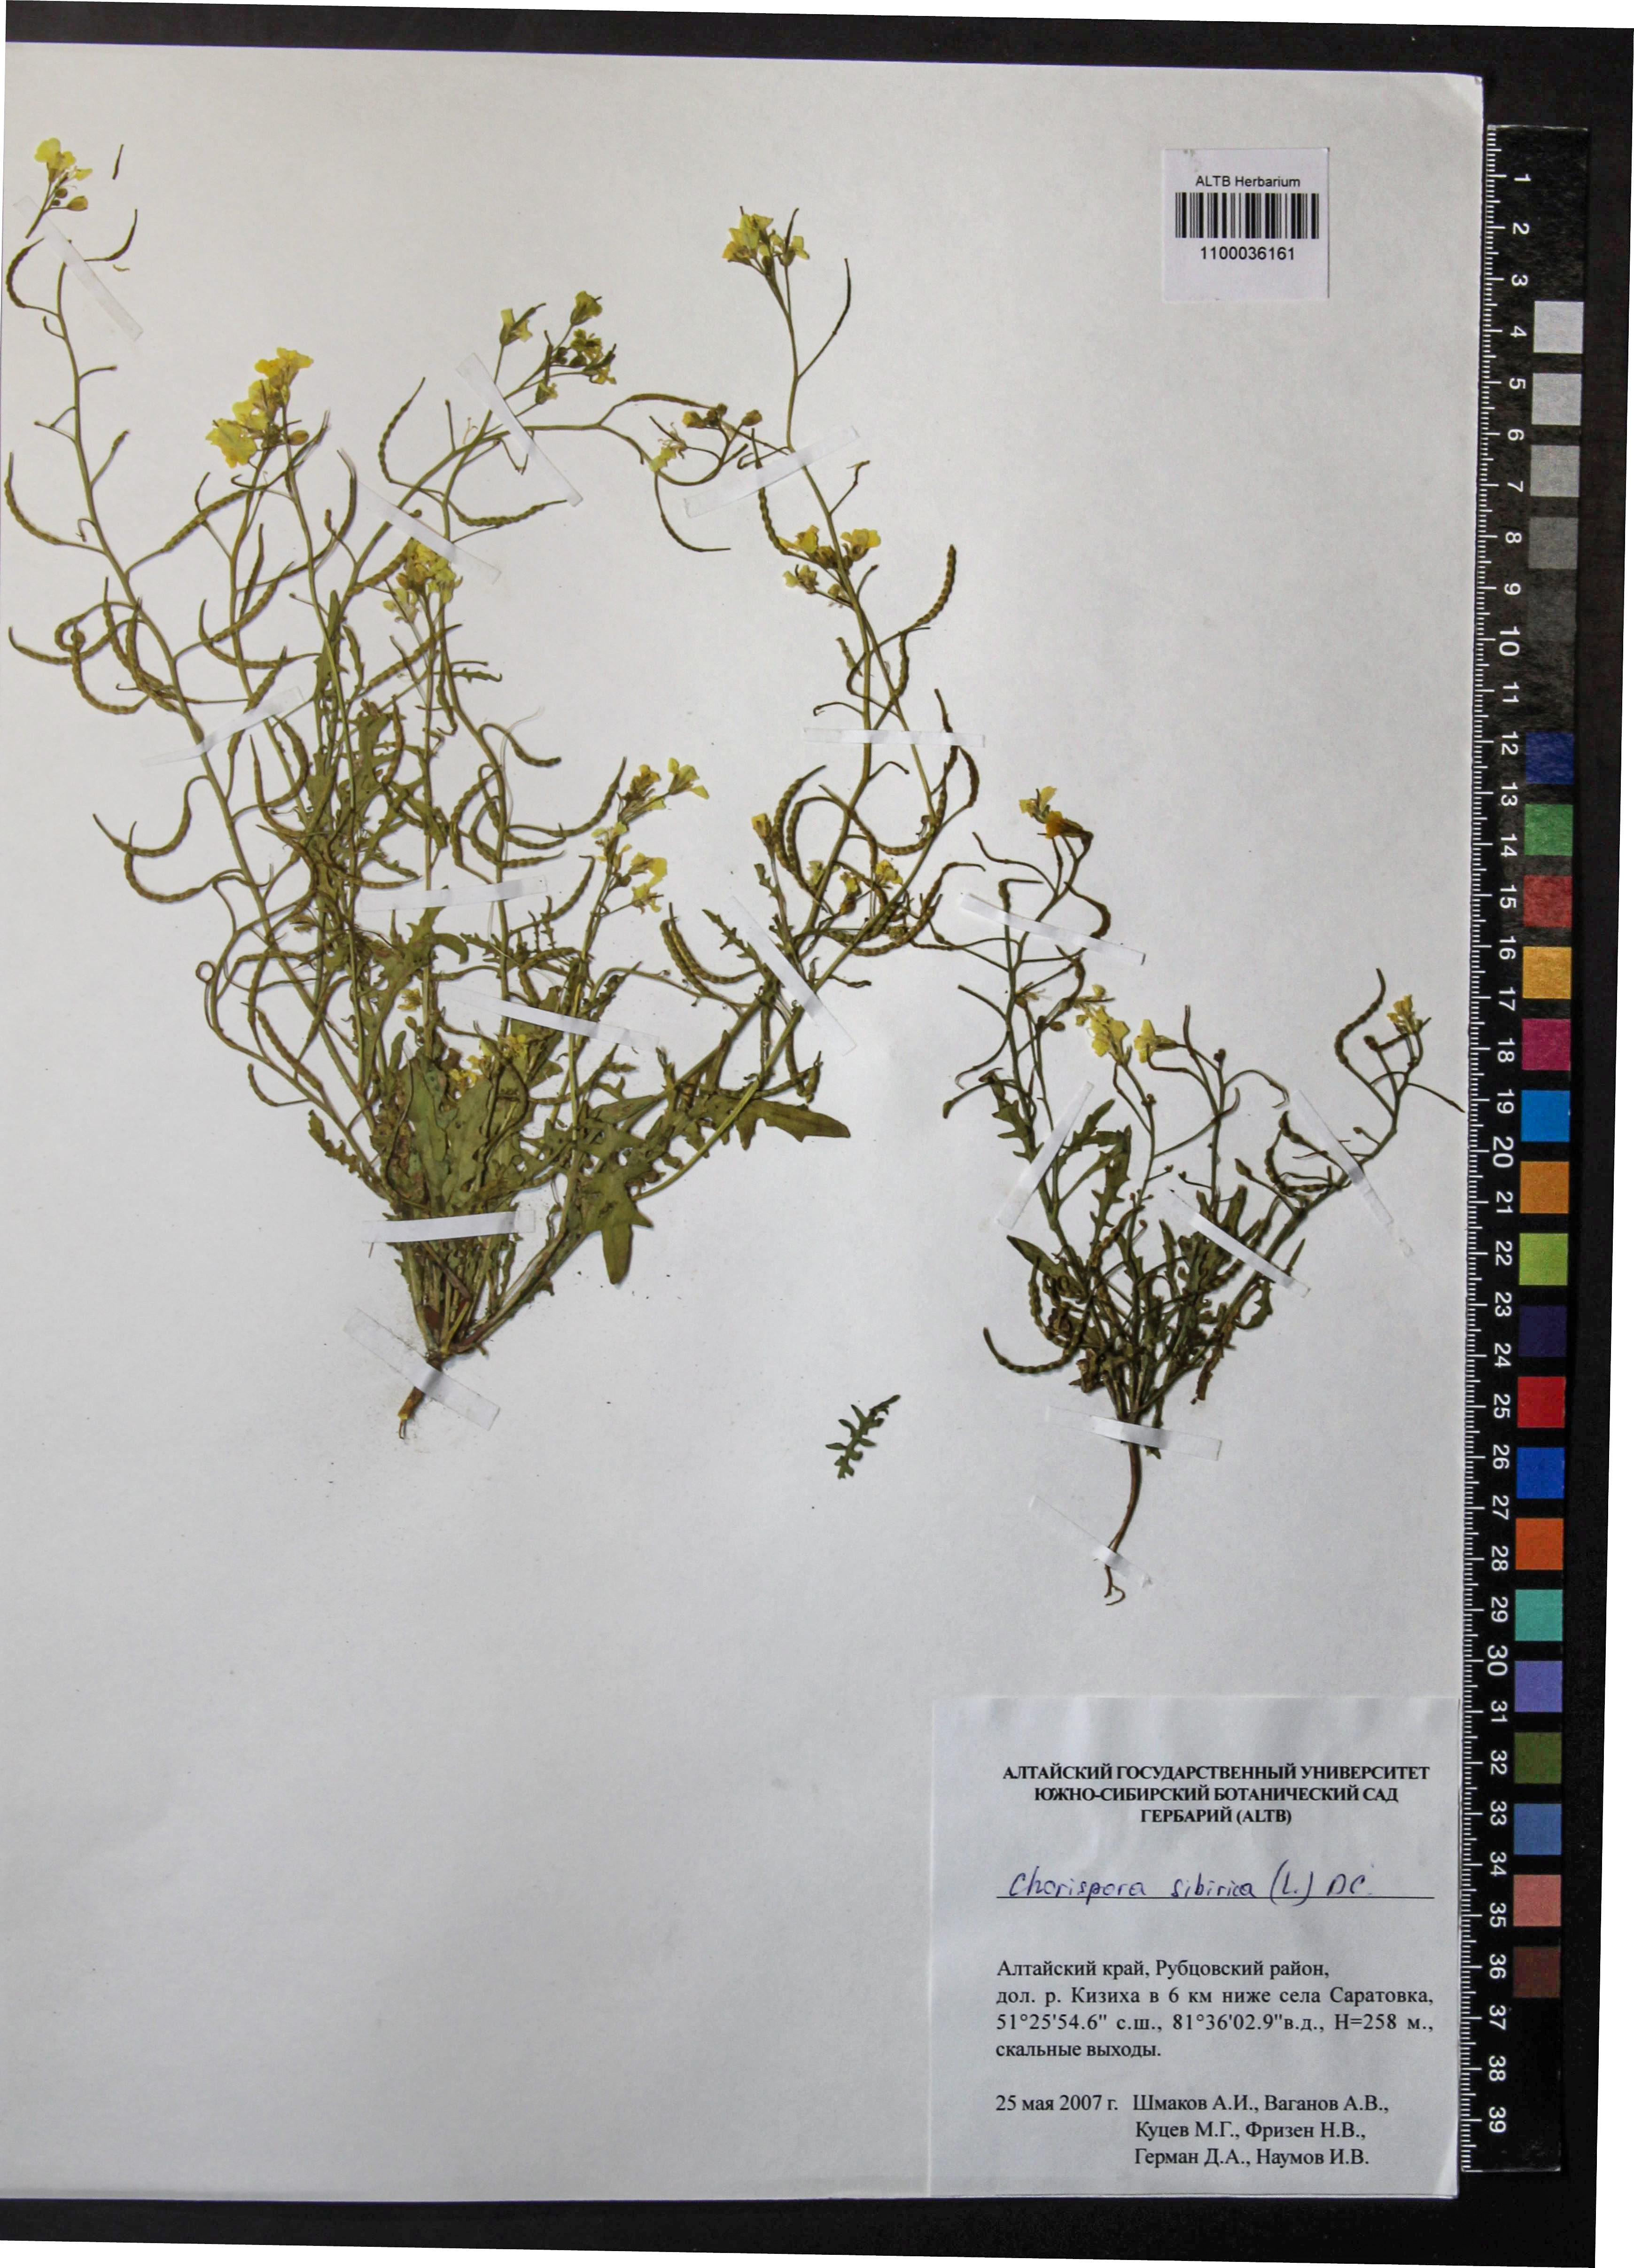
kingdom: Plantae
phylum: Tracheophyta
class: Magnoliopsida
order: Brassicales
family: Brassicaceae
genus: Chorispora
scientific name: Chorispora sibirica
